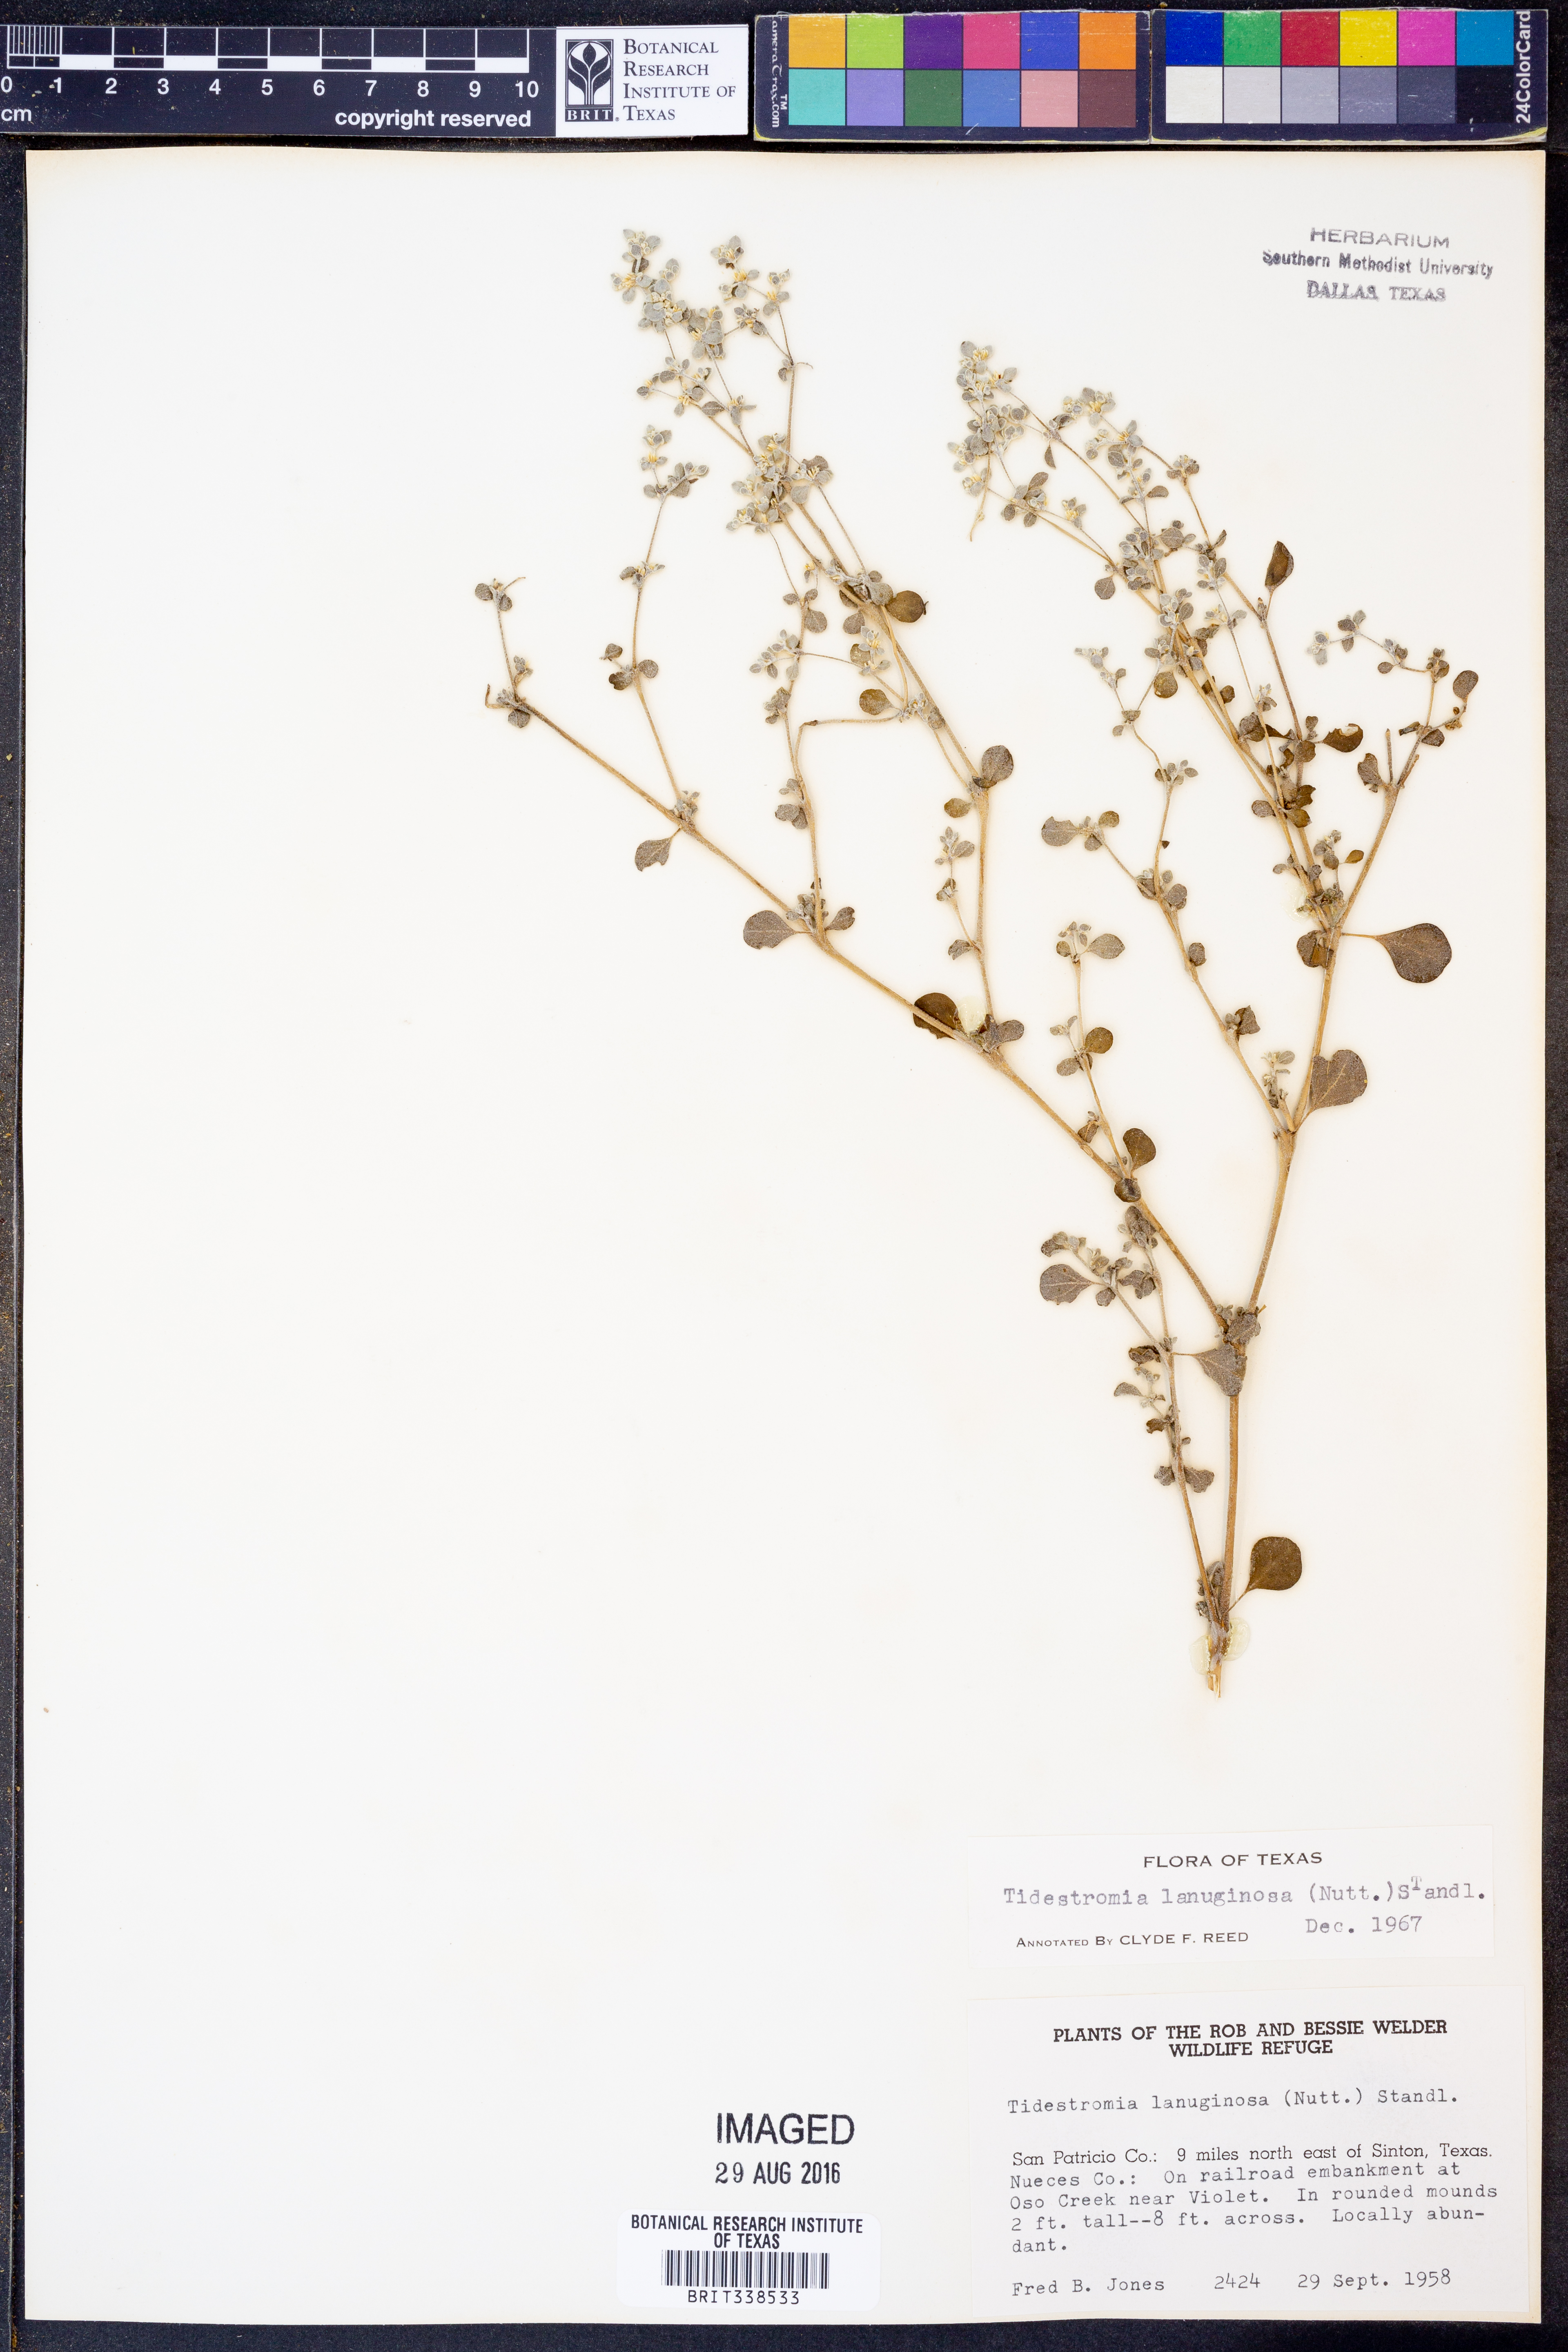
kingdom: Plantae
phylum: Tracheophyta
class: Magnoliopsida
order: Caryophyllales
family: Amaranthaceae
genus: Tidestromia
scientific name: Tidestromia lanuginosa
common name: Woolly tidestromia
